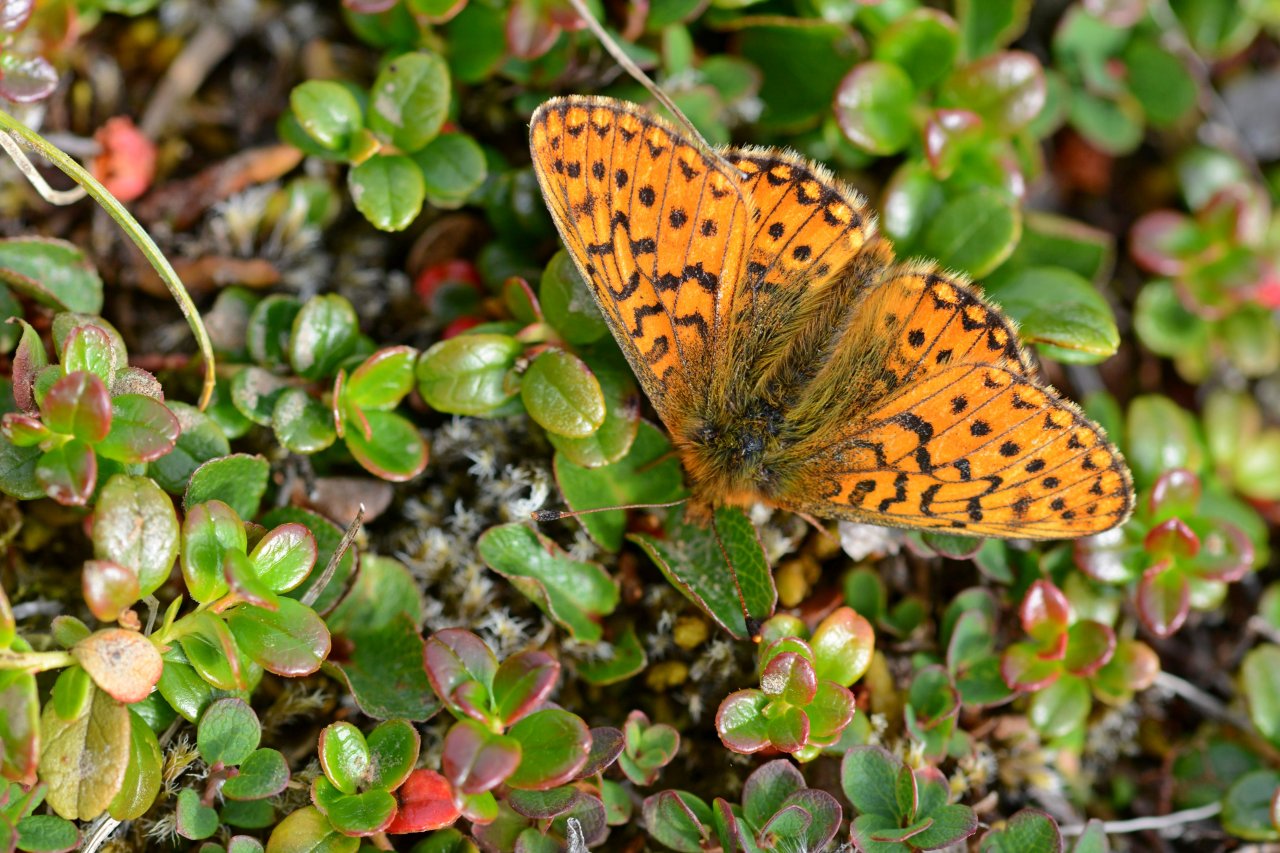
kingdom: Animalia
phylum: Arthropoda
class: Insecta
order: Lepidoptera
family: Nymphalidae
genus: Boloria
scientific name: Boloria eunomia
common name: Bog Fritillary
